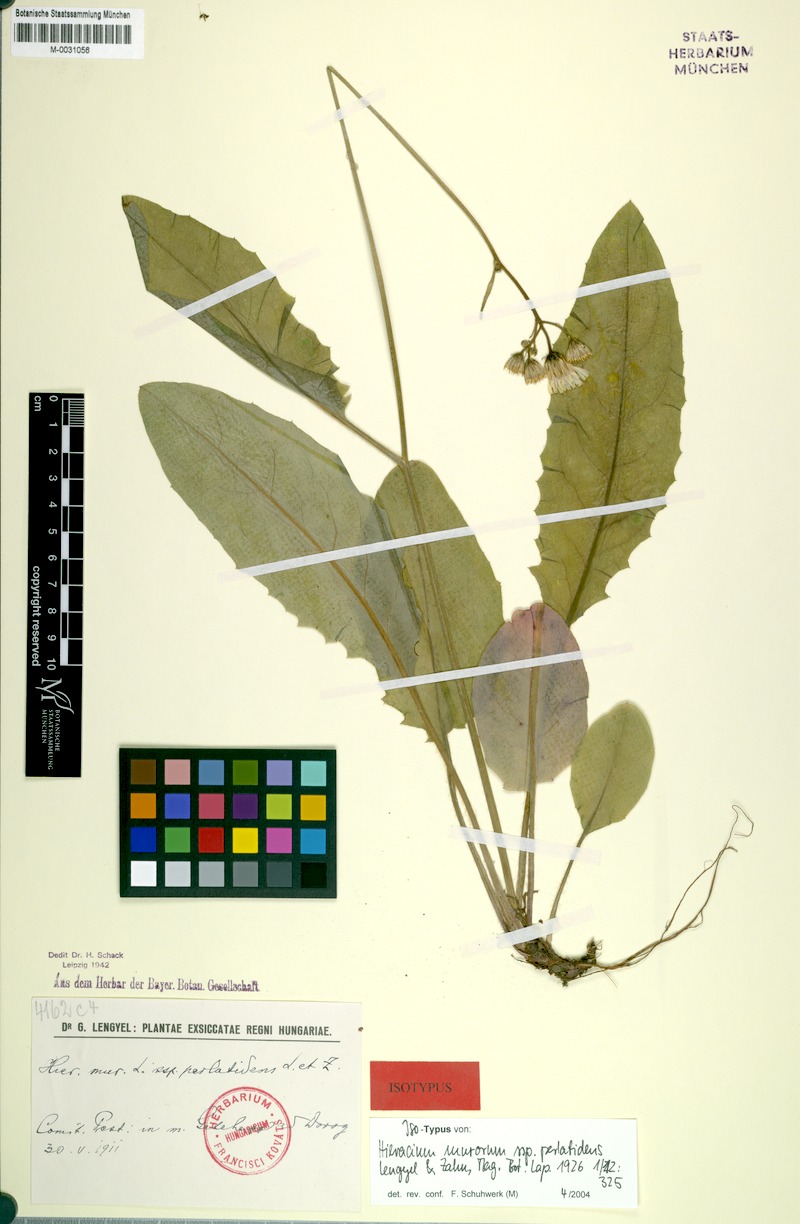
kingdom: Plantae
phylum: Tracheophyta
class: Magnoliopsida
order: Asterales
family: Asteraceae
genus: Hieracium
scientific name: Hieracium murorum
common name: Wall hawkweed
